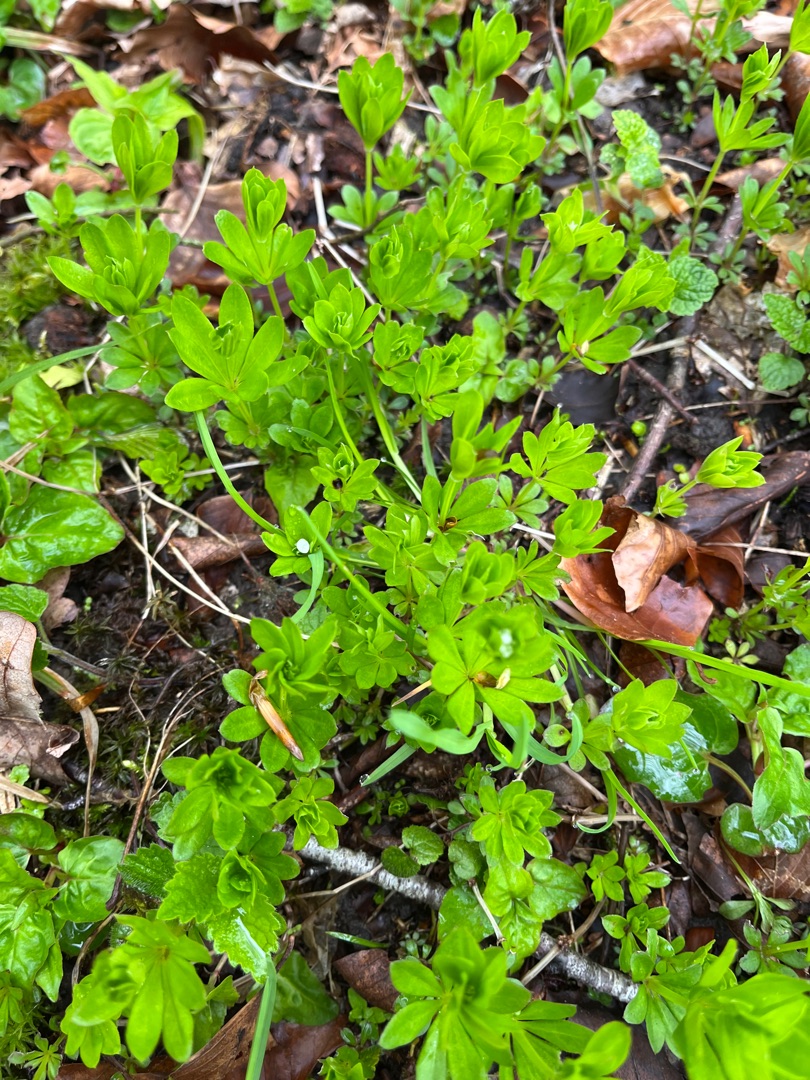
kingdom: Plantae
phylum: Tracheophyta
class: Magnoliopsida
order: Gentianales
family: Rubiaceae
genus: Galium
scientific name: Galium odoratum
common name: Skovmærke
